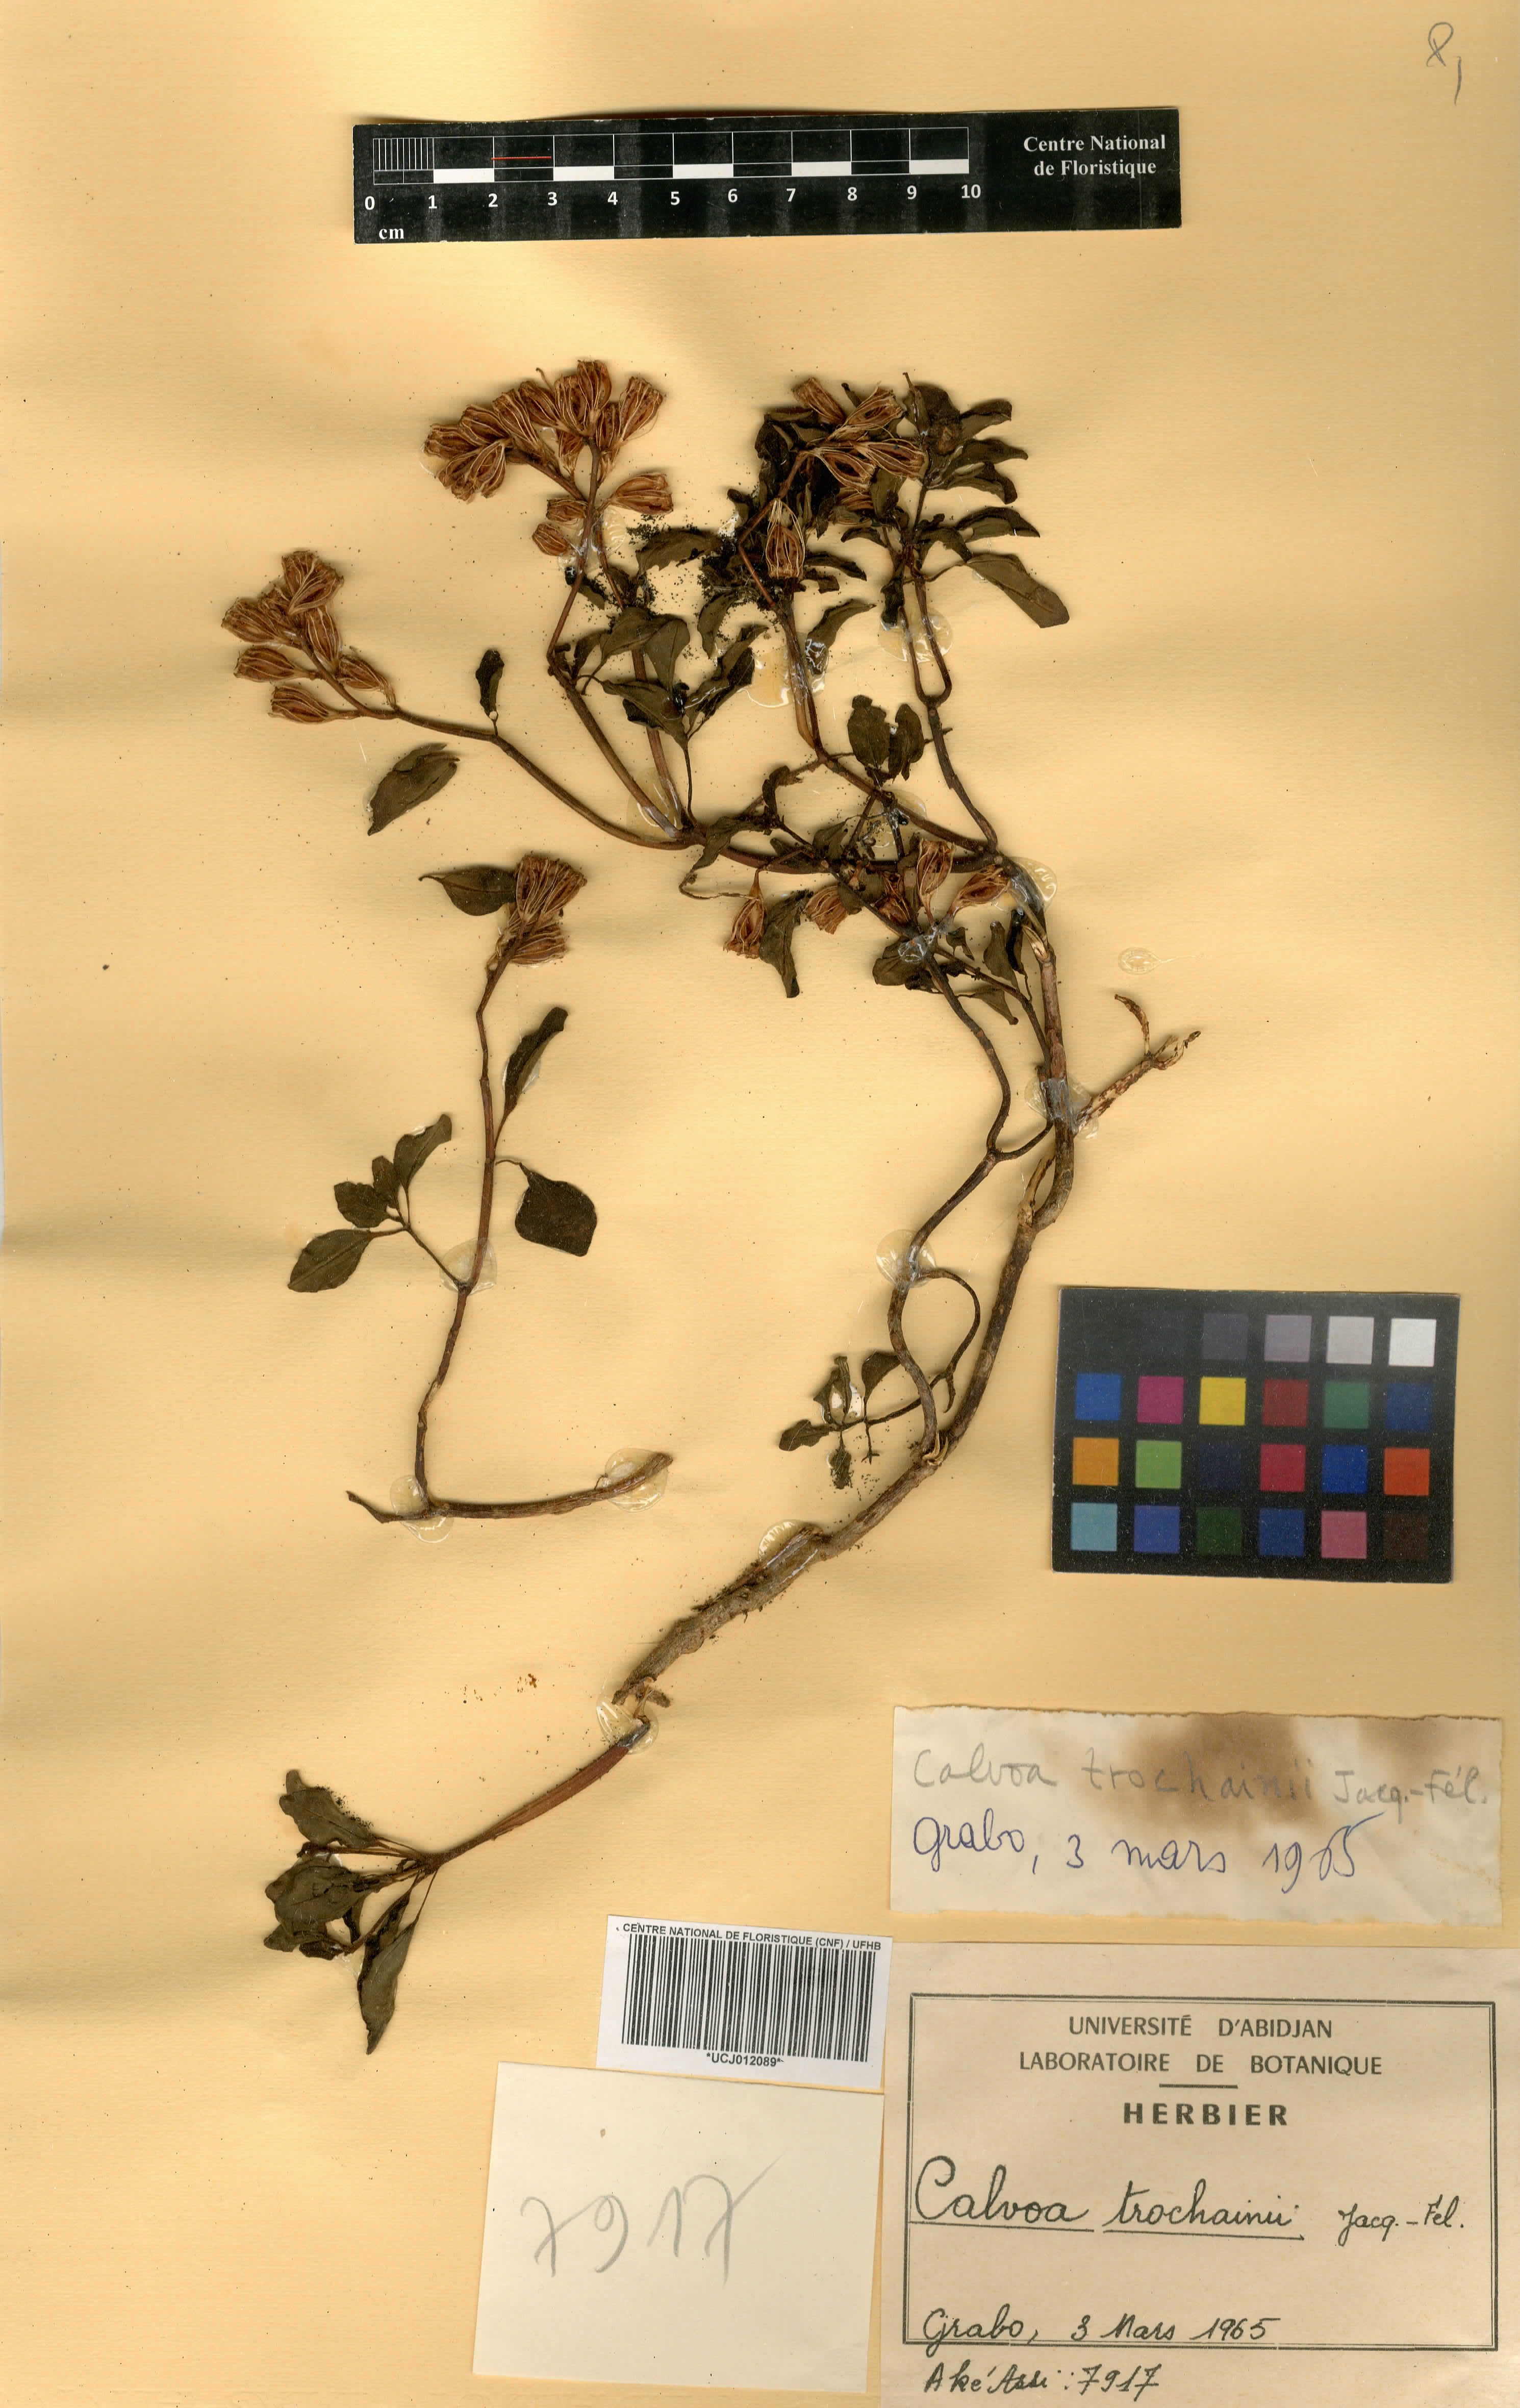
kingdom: Plantae
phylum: Tracheophyta
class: Magnoliopsida
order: Myrtales
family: Melastomataceae
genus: Calvoa
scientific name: Calvoa trochainii
